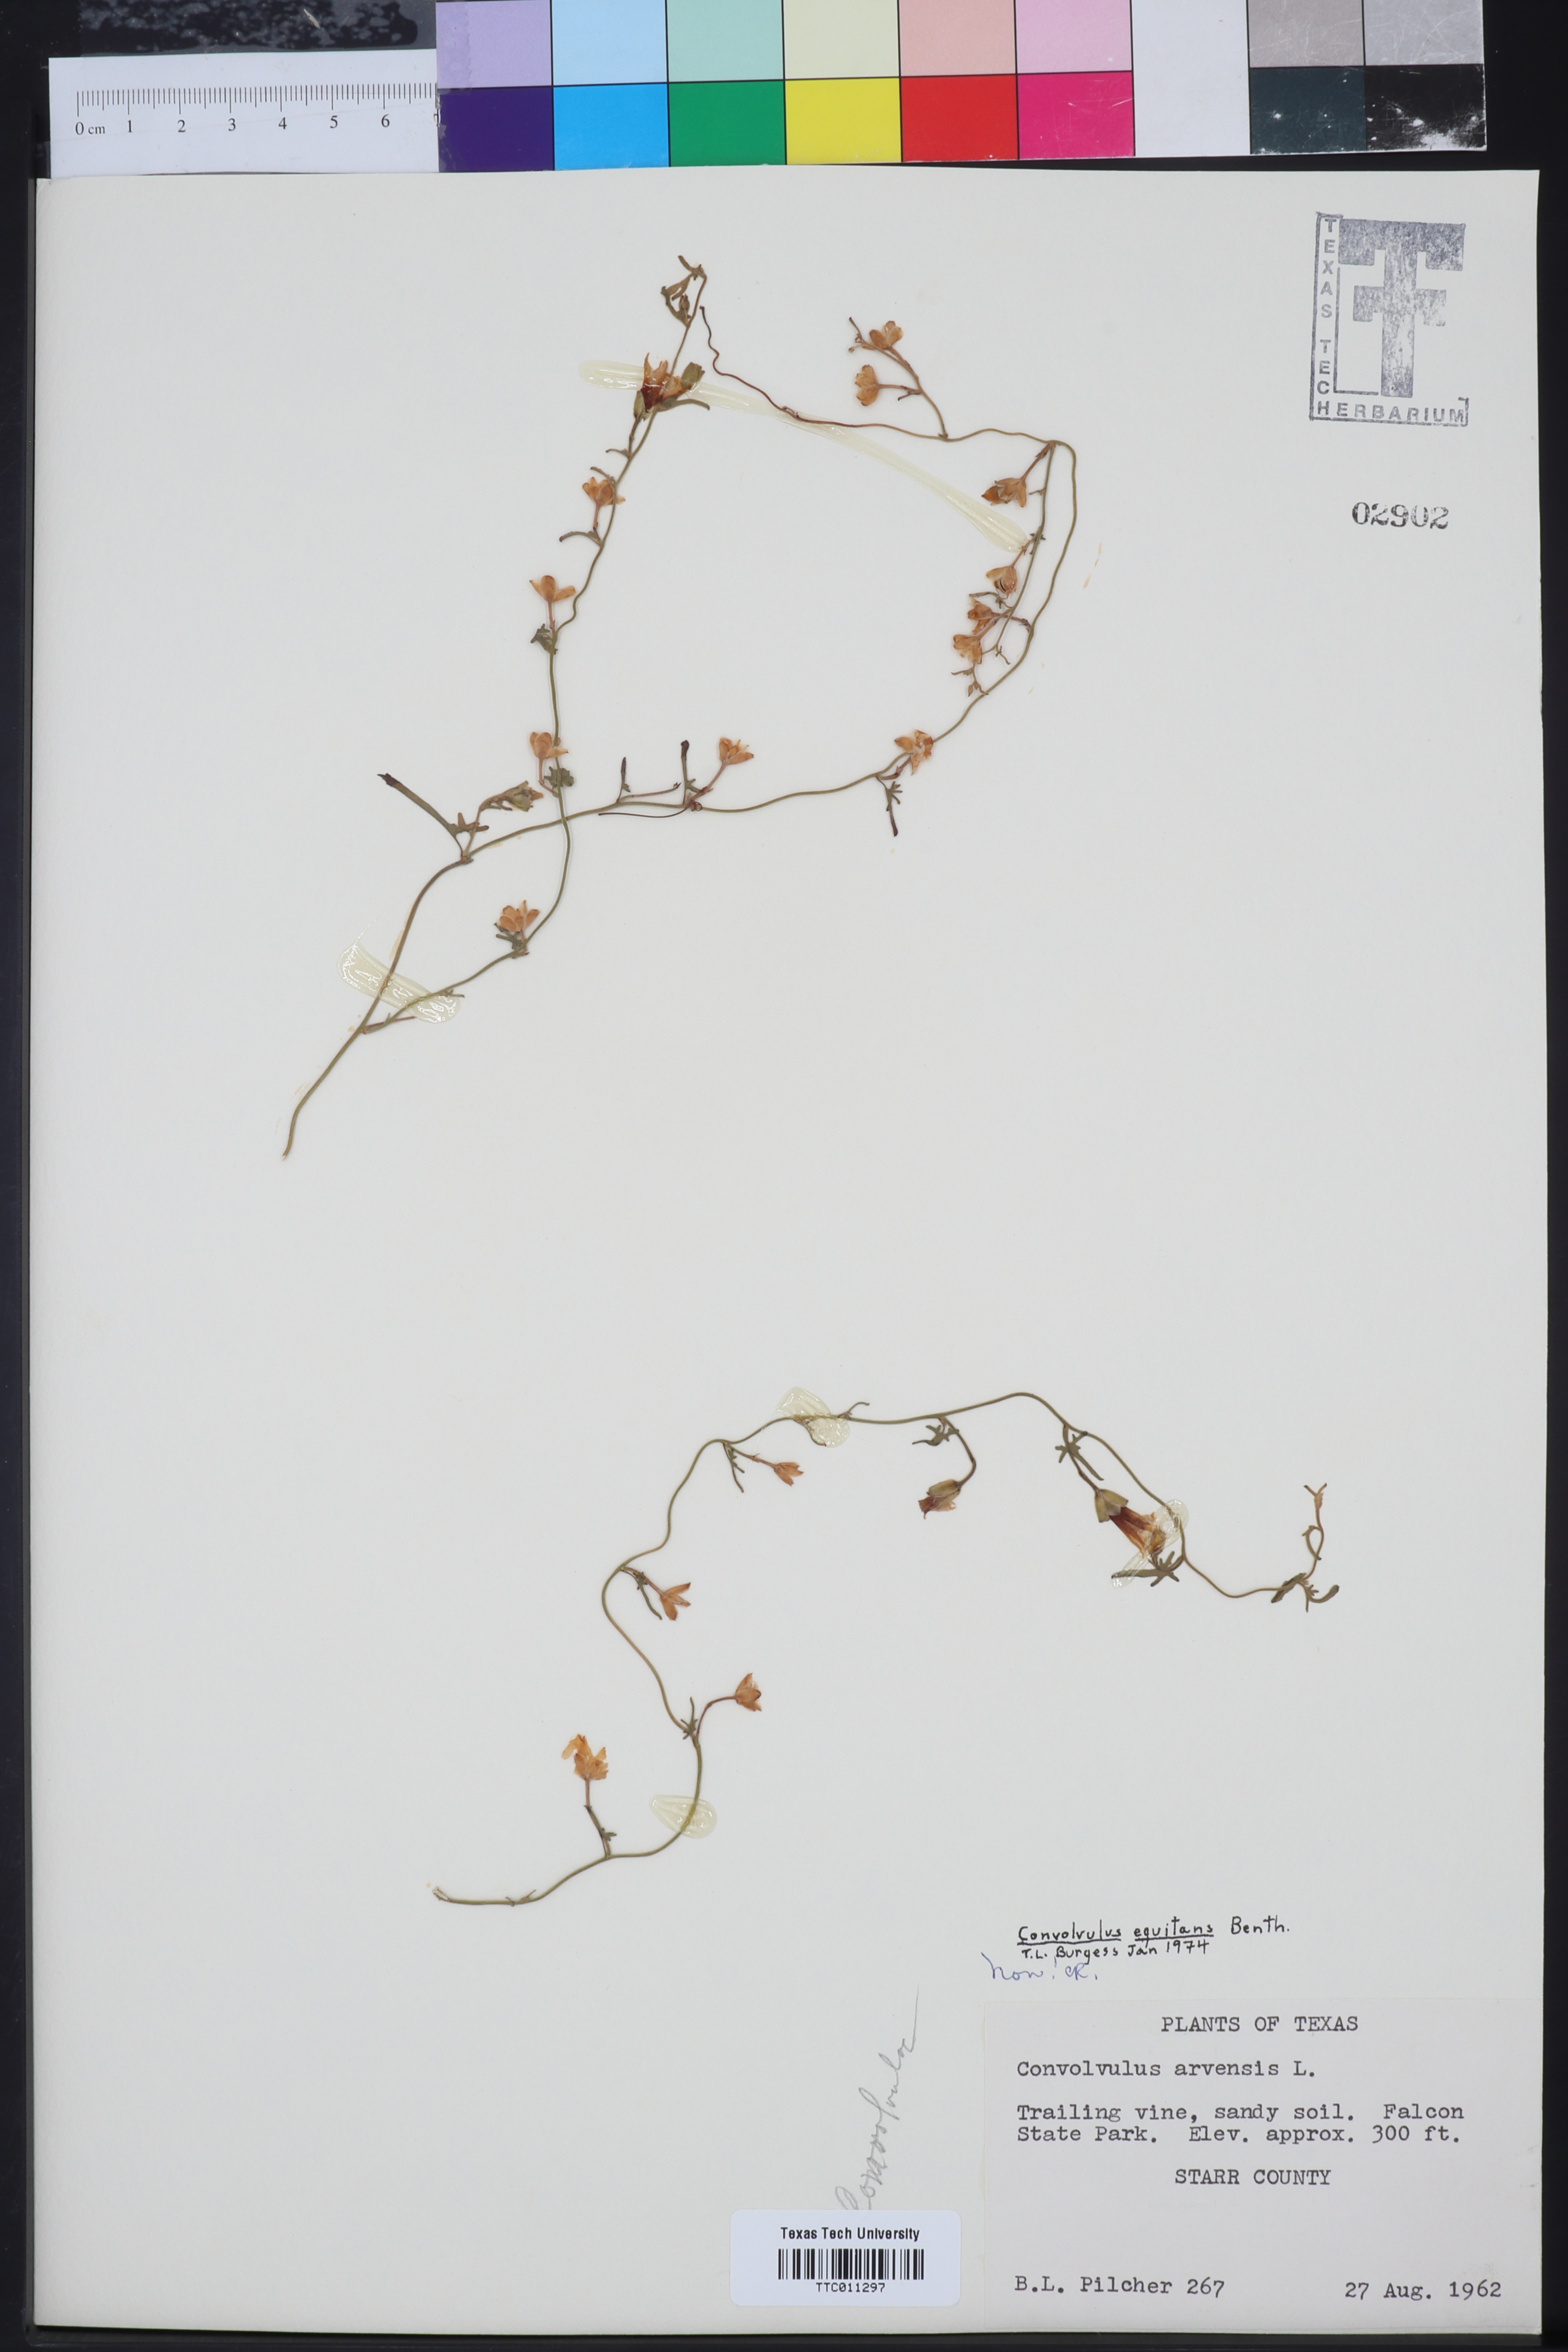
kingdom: Plantae
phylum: Tracheophyta
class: Magnoliopsida
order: Solanales
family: Convolvulaceae
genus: Convolvulus
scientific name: Convolvulus equitans
